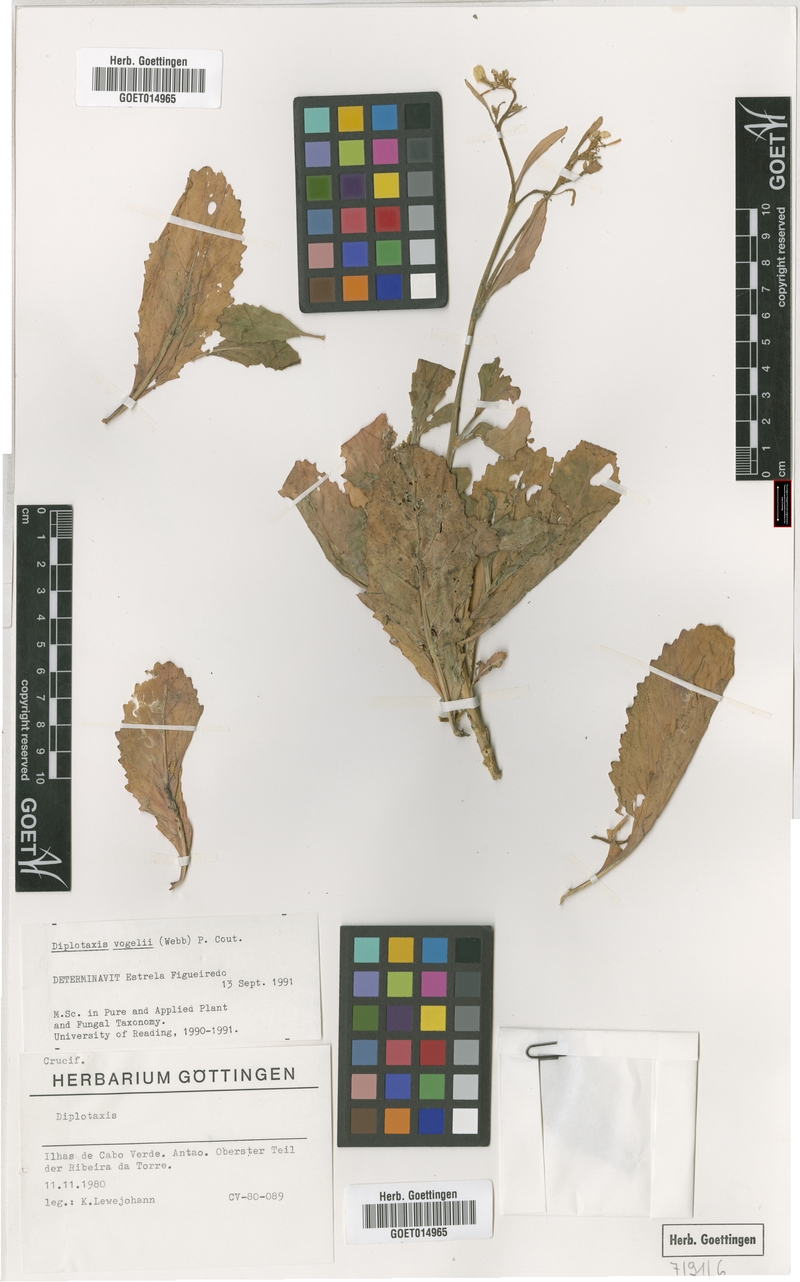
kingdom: Plantae
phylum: Tracheophyta
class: Magnoliopsida
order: Brassicales
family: Brassicaceae
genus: Diplotaxis
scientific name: Diplotaxis vogelii
